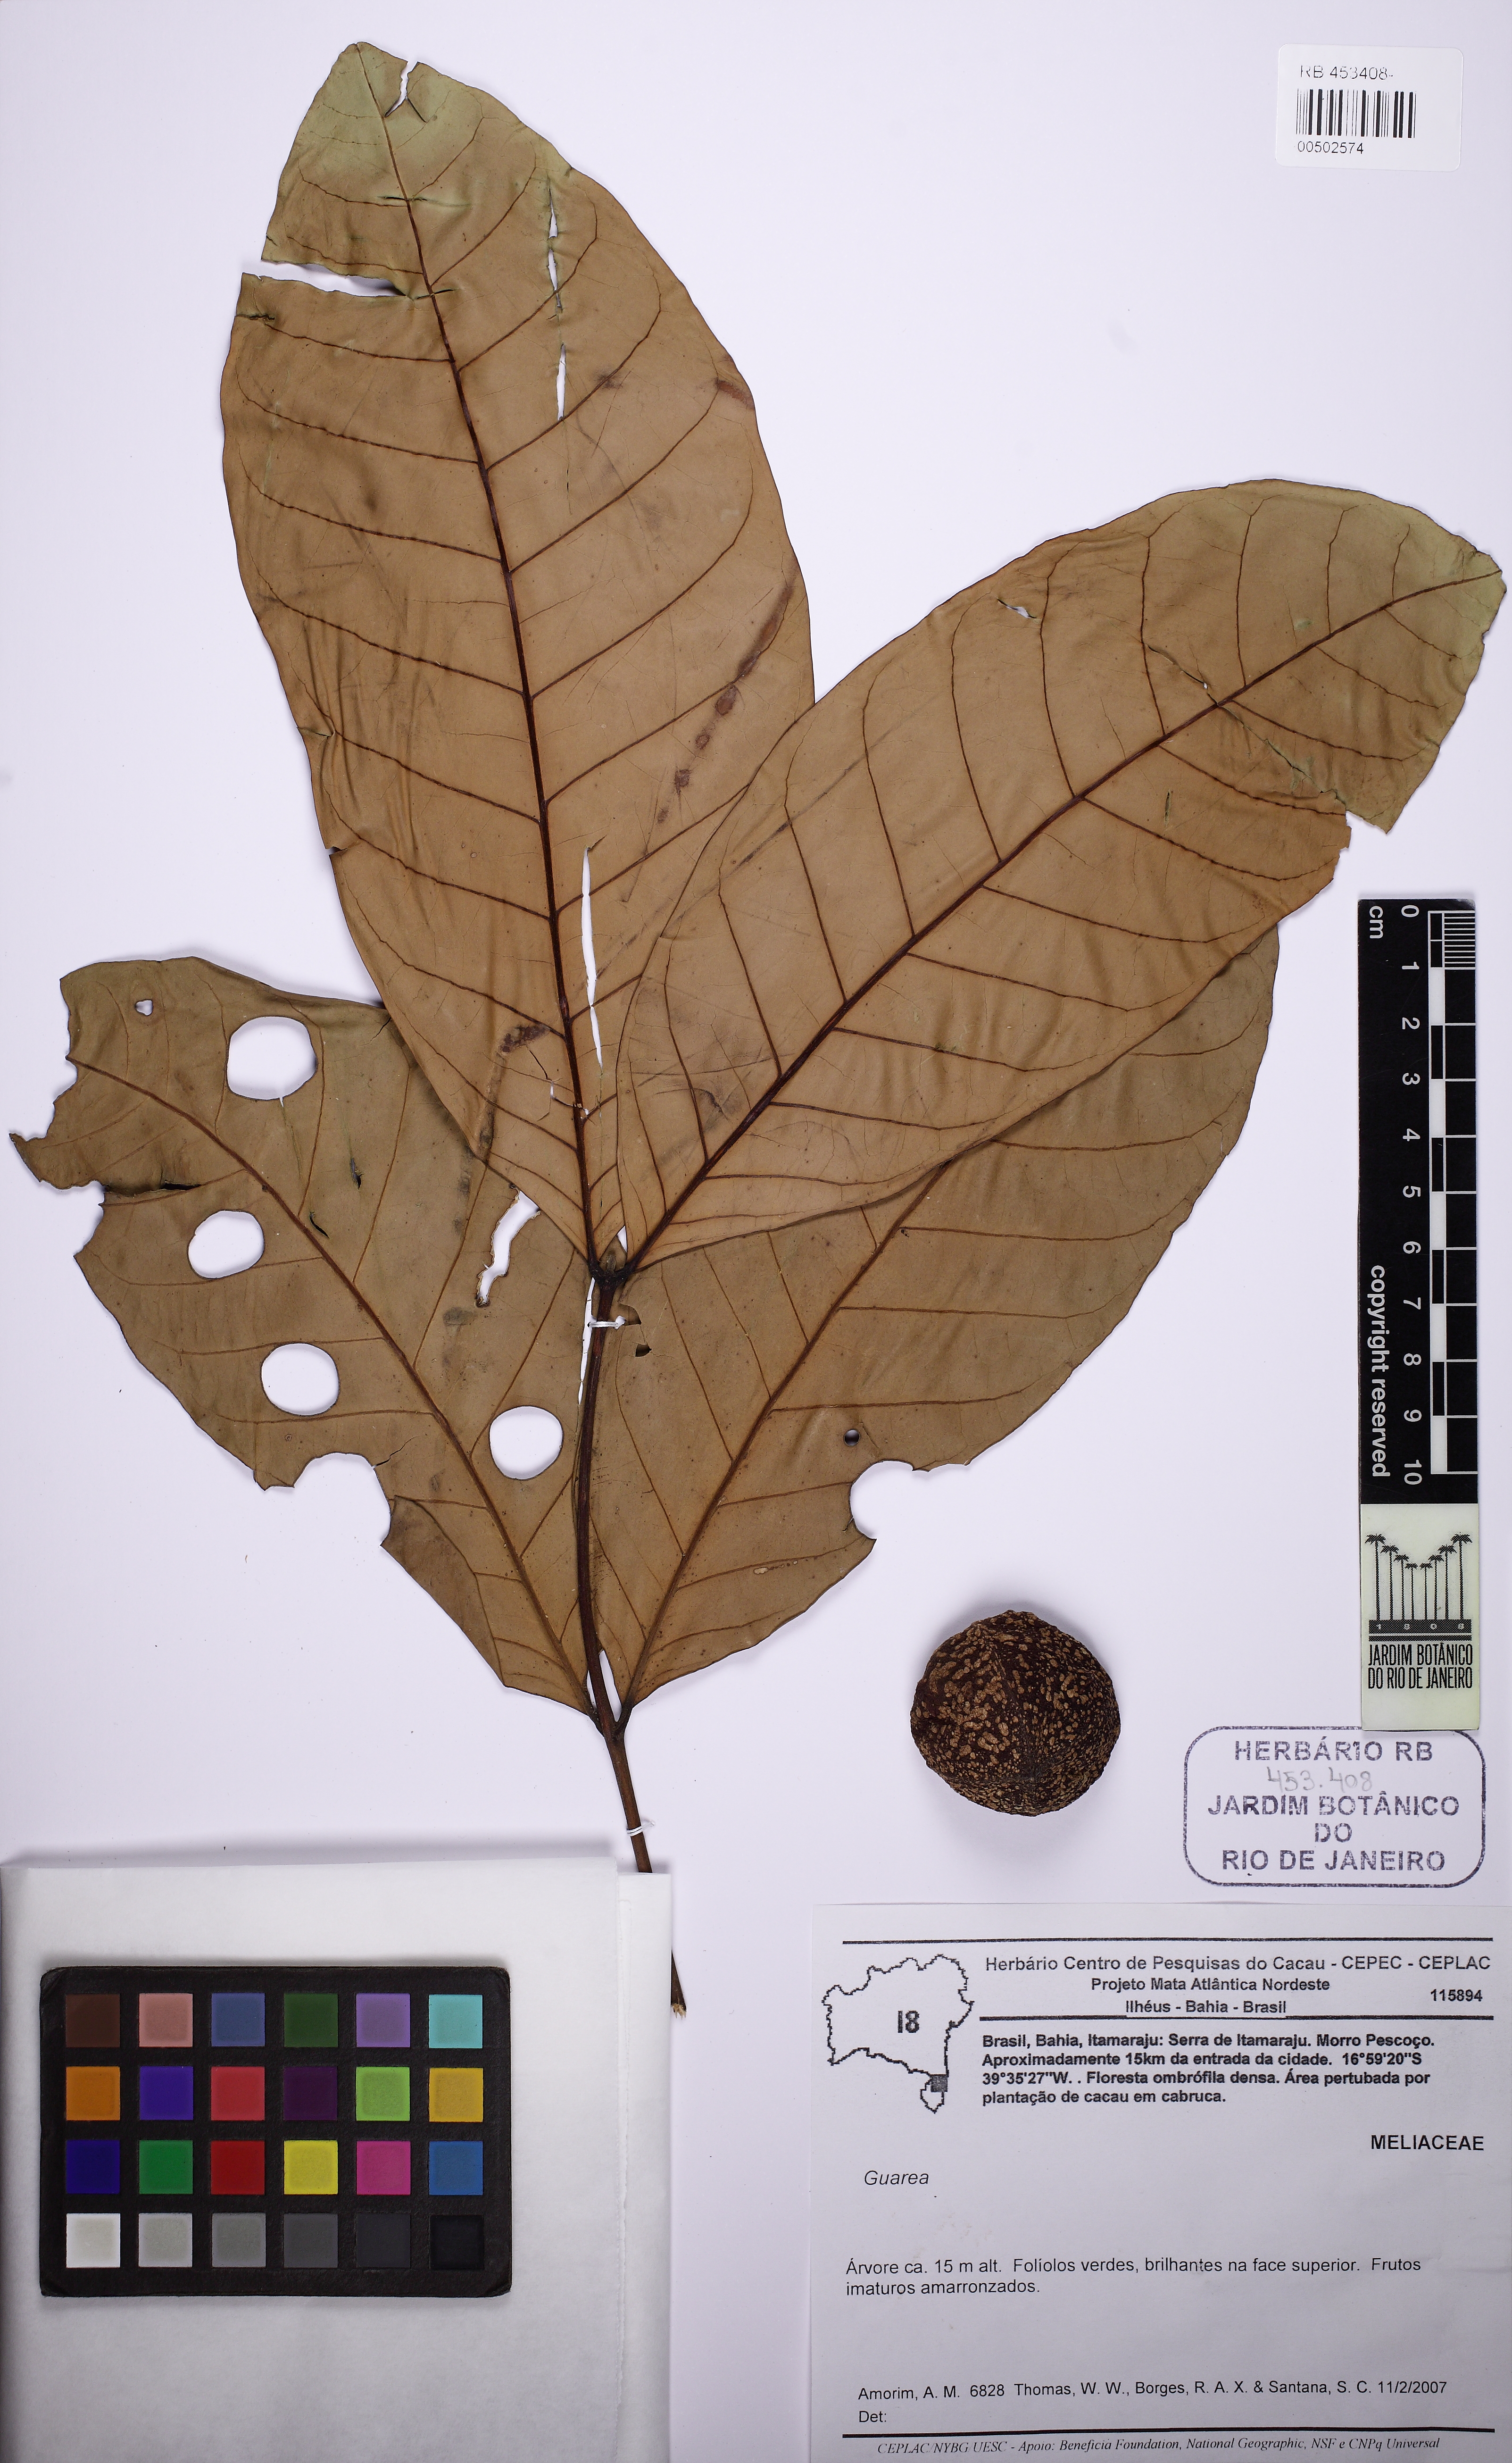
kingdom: Plantae
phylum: Tracheophyta
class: Magnoliopsida
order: Sapindales
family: Meliaceae
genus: Guarea
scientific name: Guarea
